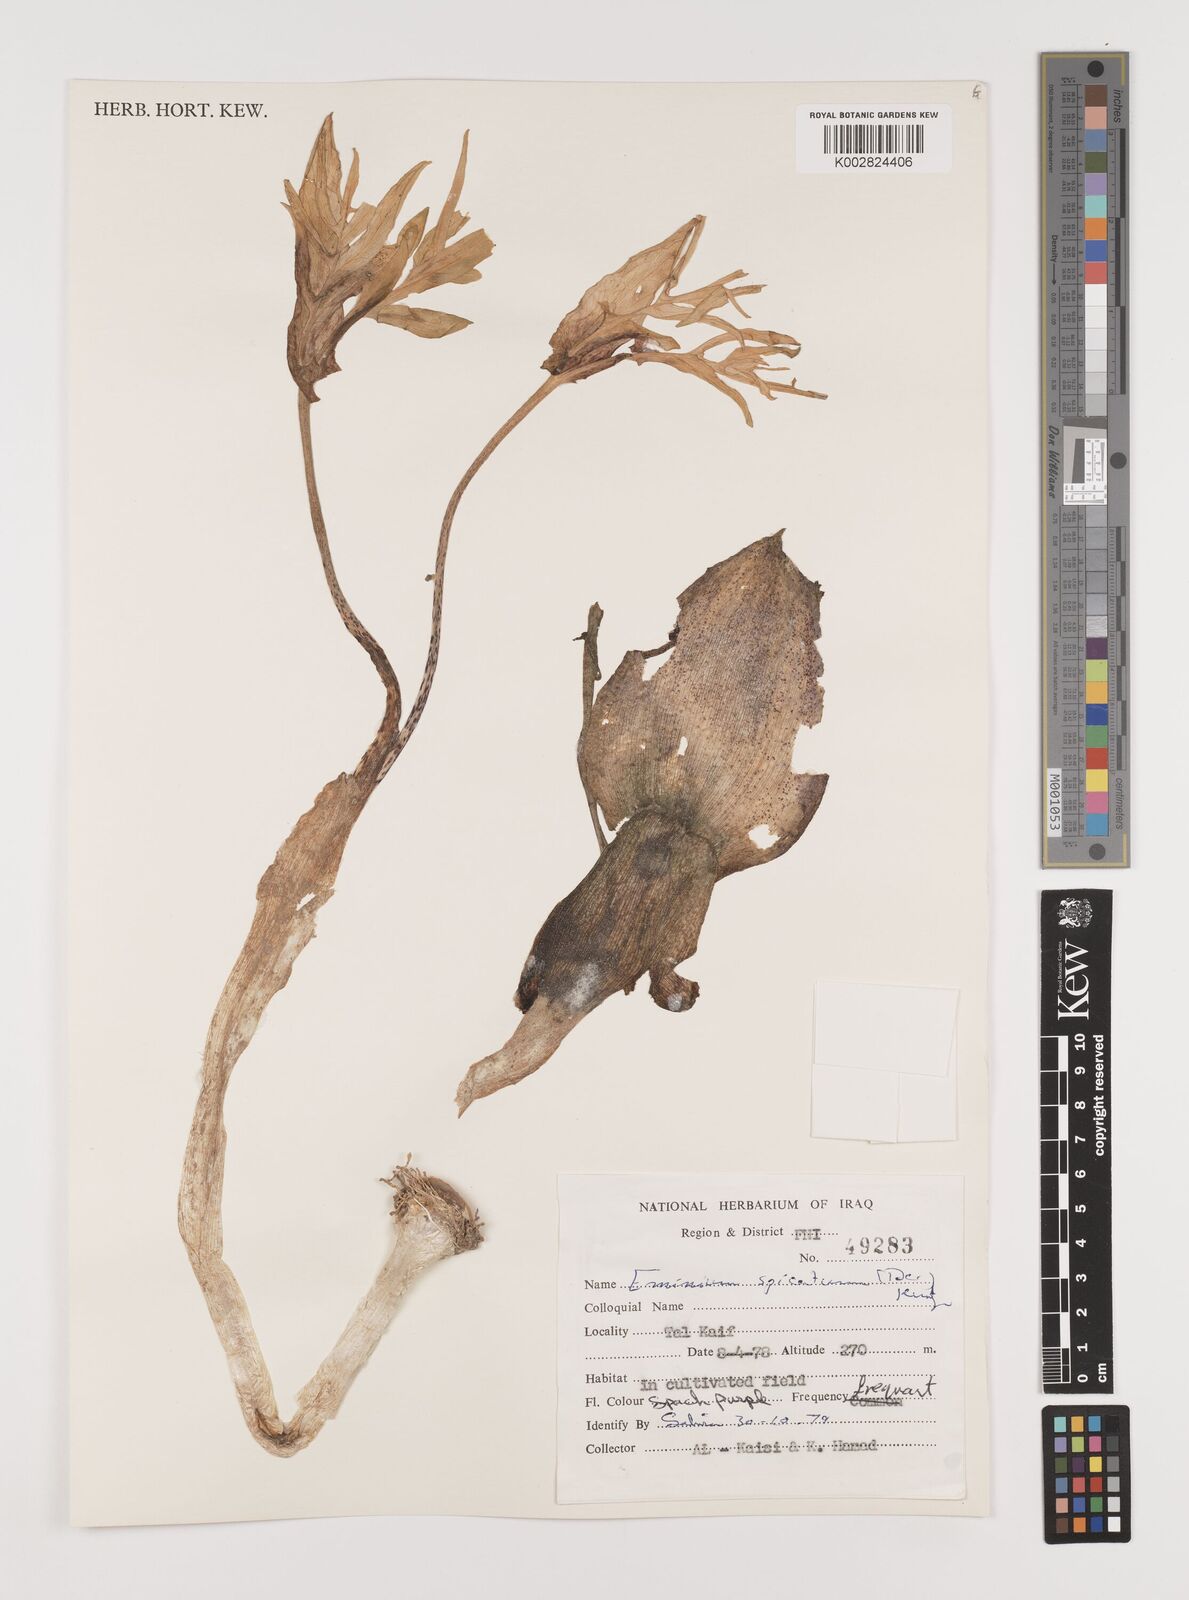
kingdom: Plantae
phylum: Tracheophyta
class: Liliopsida
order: Alismatales
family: Araceae
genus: Eminium
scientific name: Eminium spiculatum
